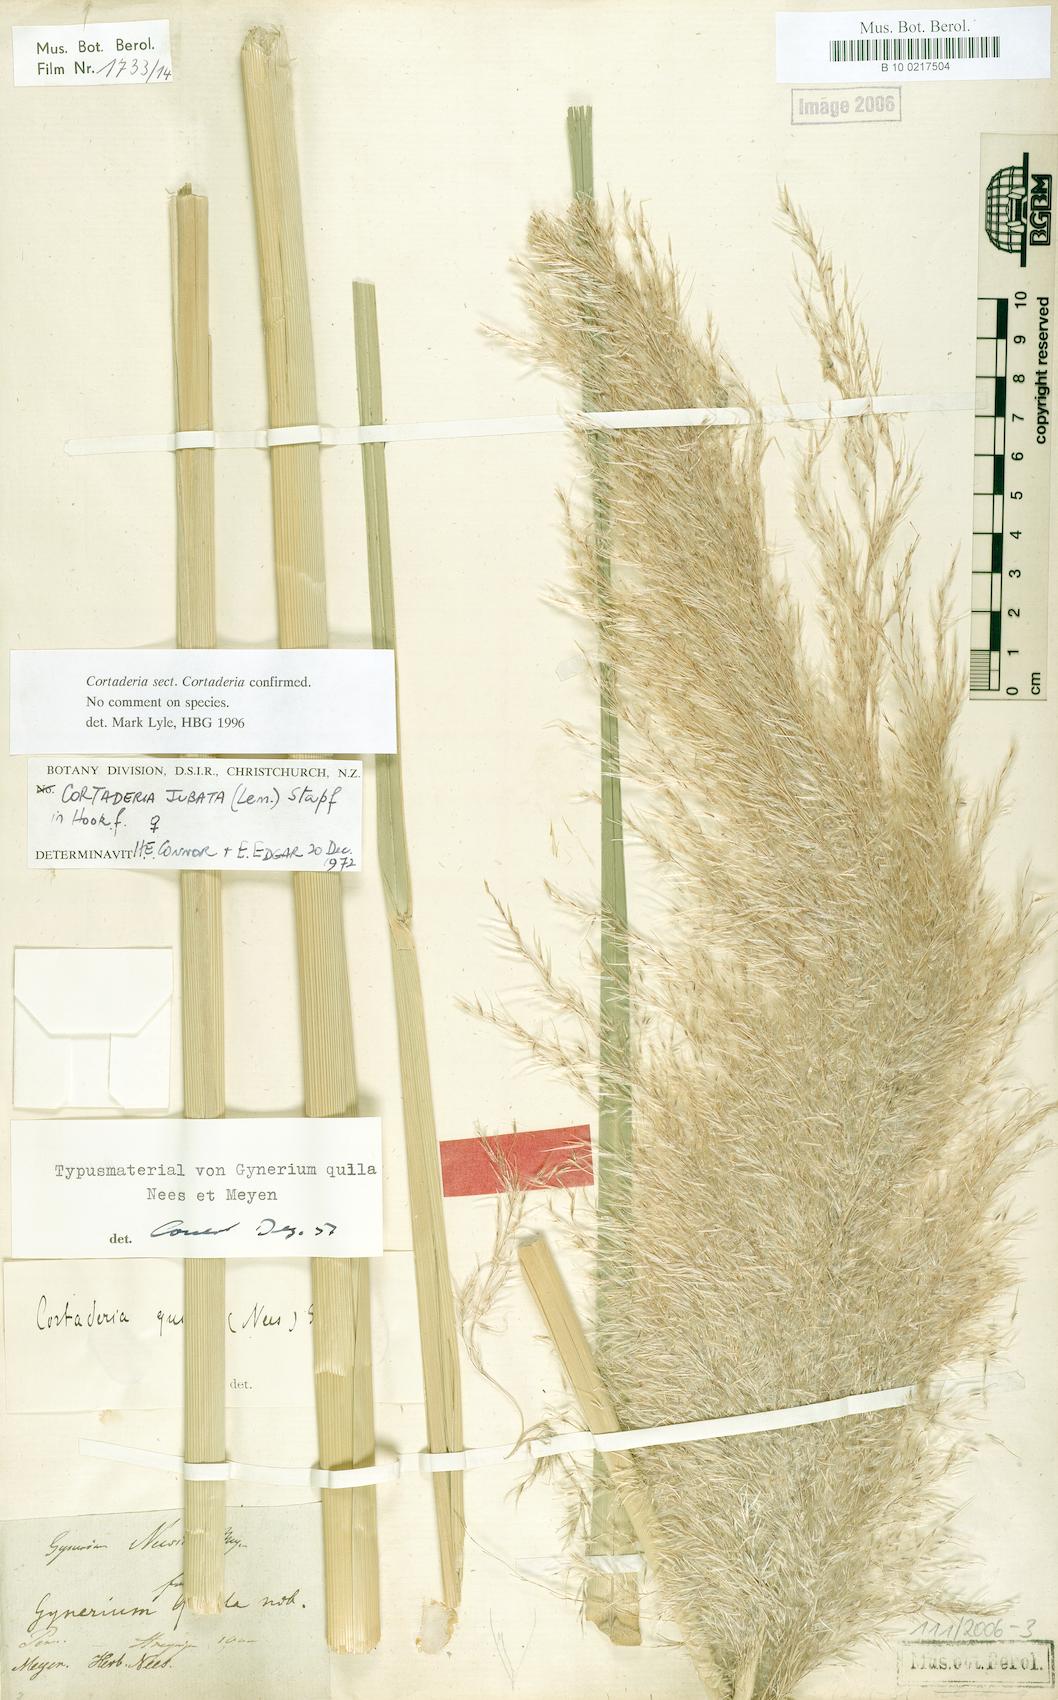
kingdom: Plantae
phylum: Tracheophyta
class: Liliopsida
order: Poales
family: Poaceae
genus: Cortaderia
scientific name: Cortaderia jubata
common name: Purple pampas grass
